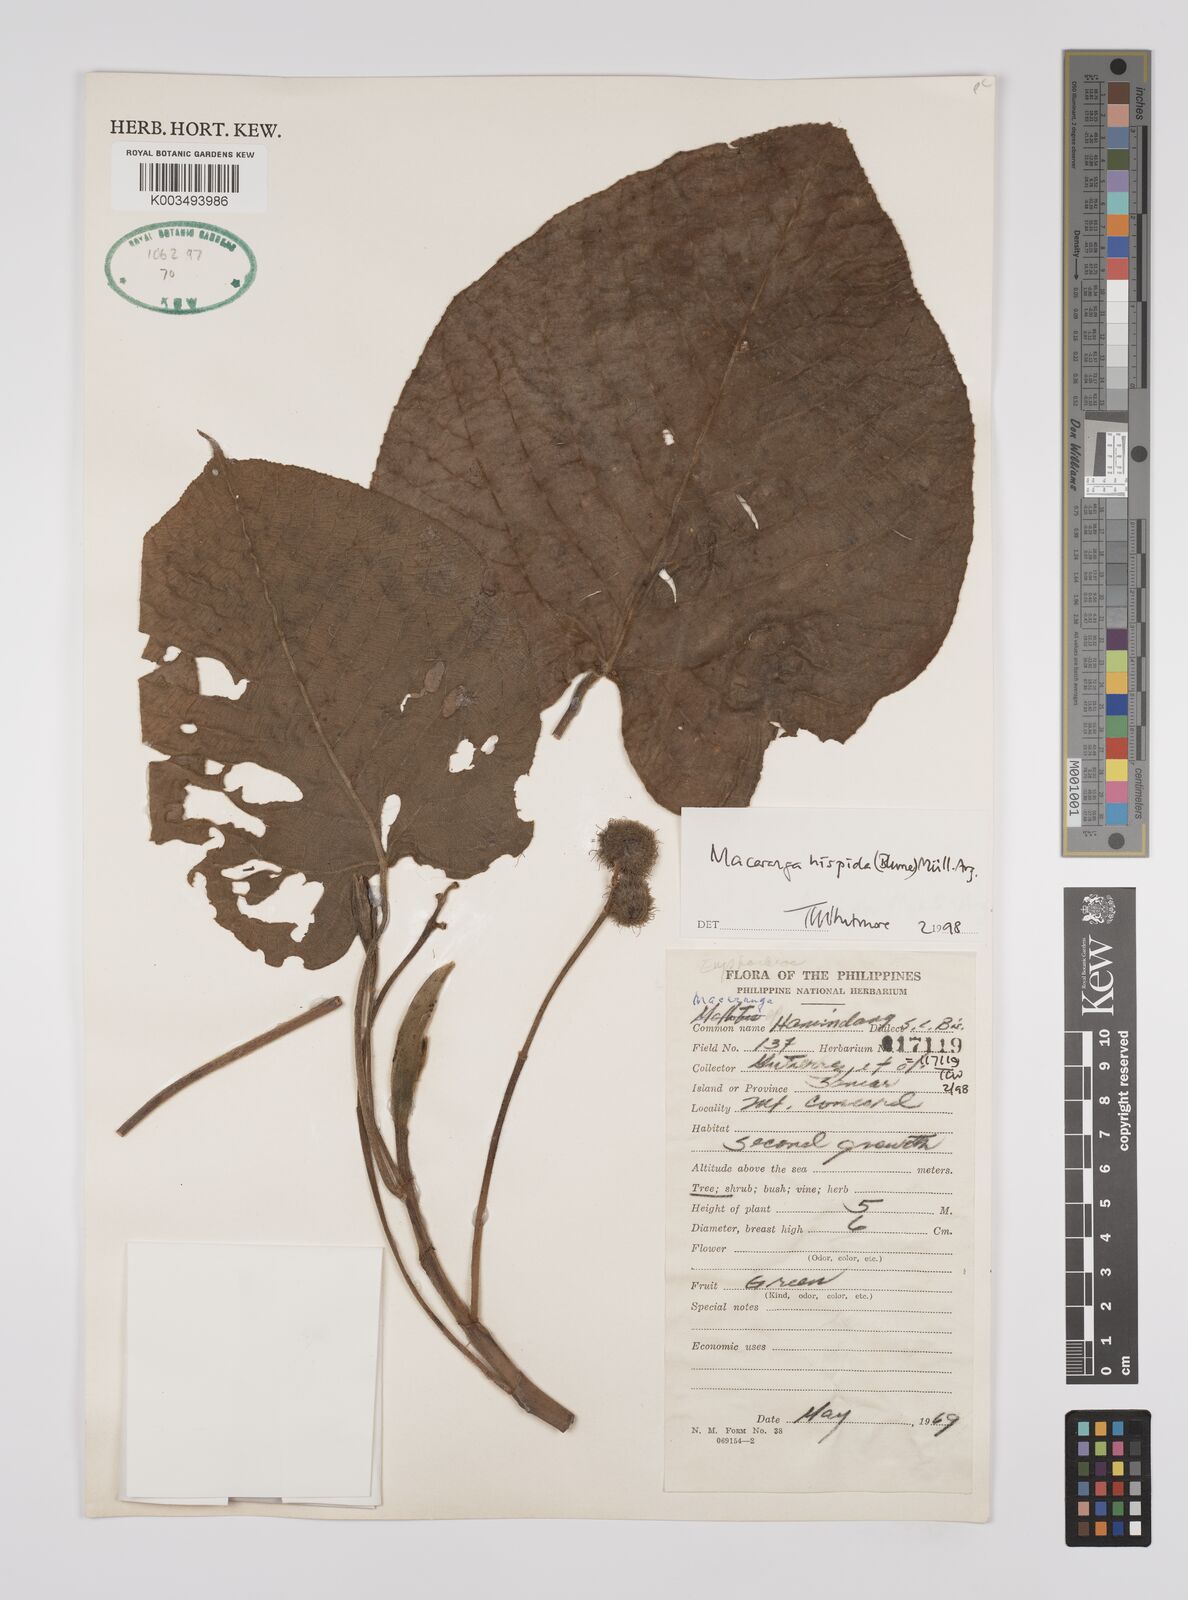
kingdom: Plantae
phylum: Tracheophyta
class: Magnoliopsida
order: Malpighiales
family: Euphorbiaceae
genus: Macaranga
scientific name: Macaranga hispida
